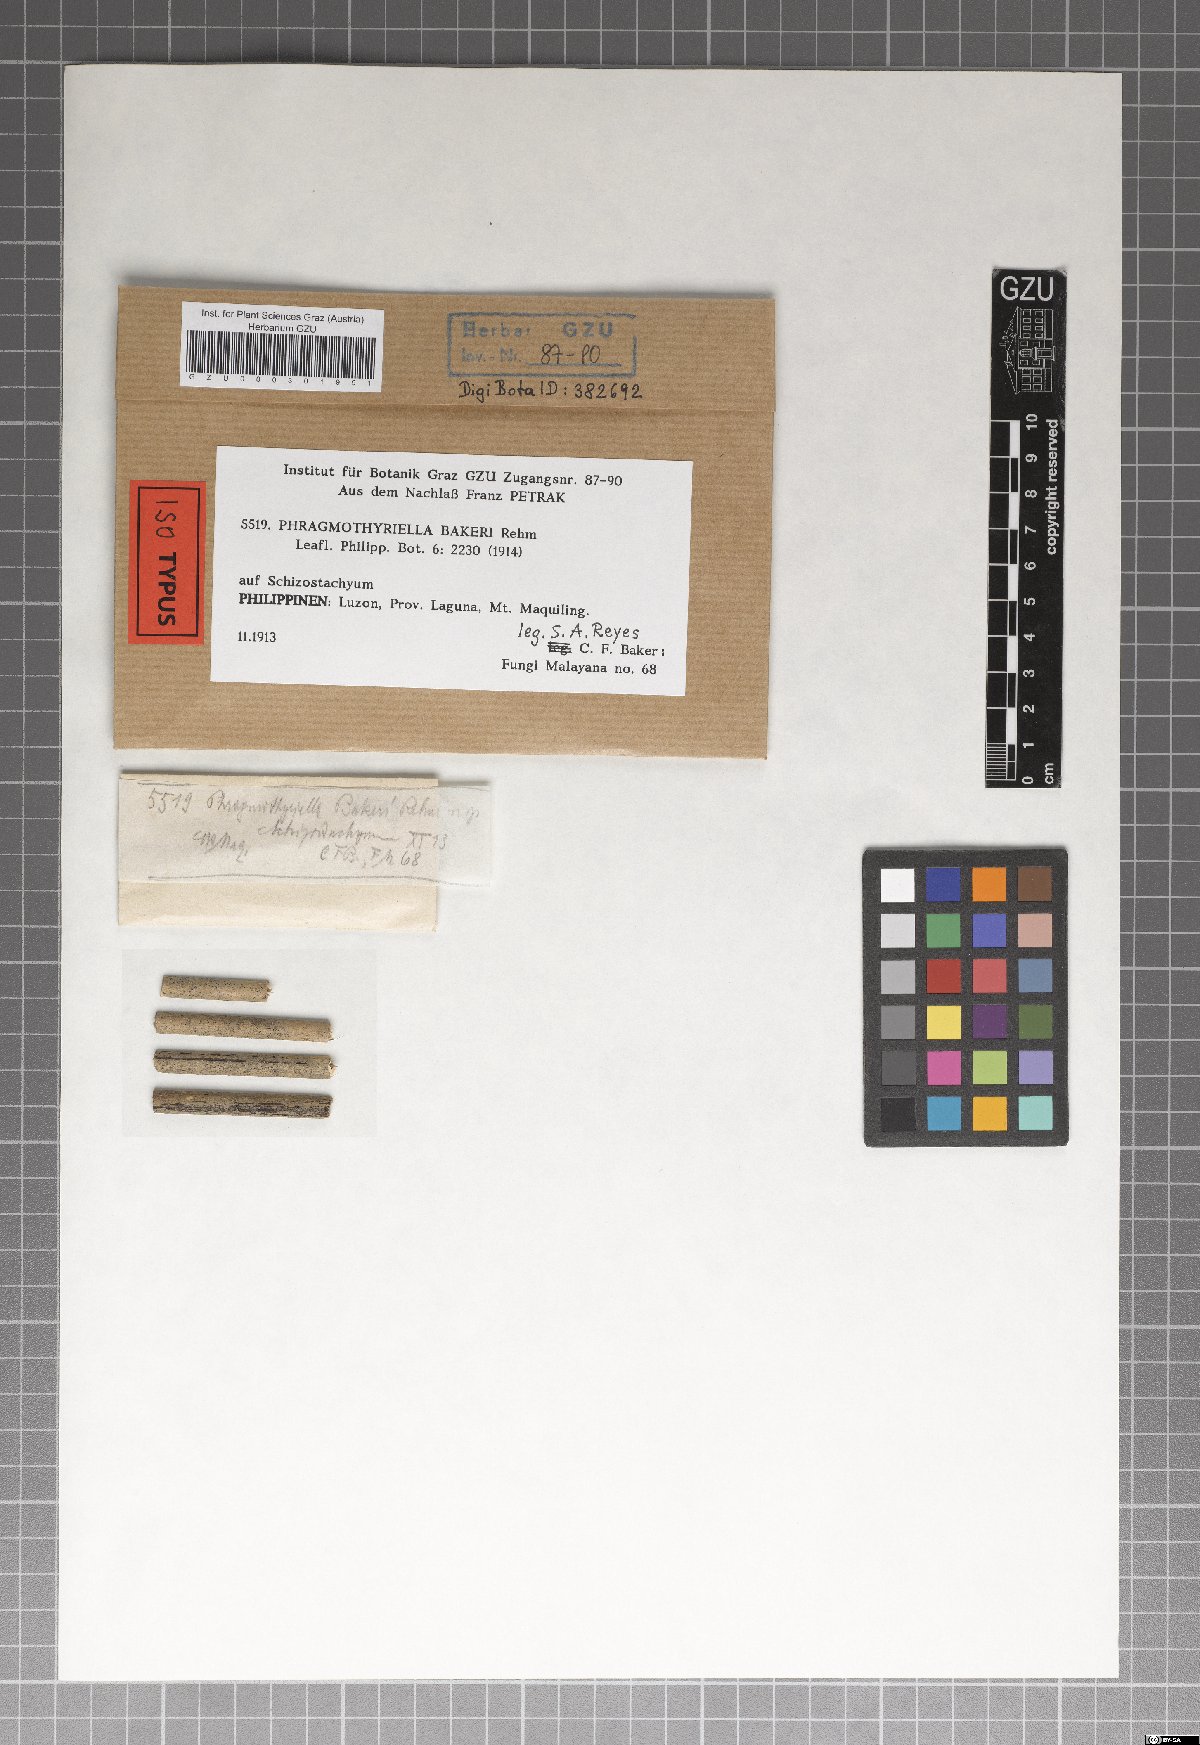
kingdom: Fungi
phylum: Ascomycota
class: Dothideomycetes
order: Mycosphaerellales
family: Schizothyriaceae
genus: Phragmothyriella
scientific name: Phragmothyriella
